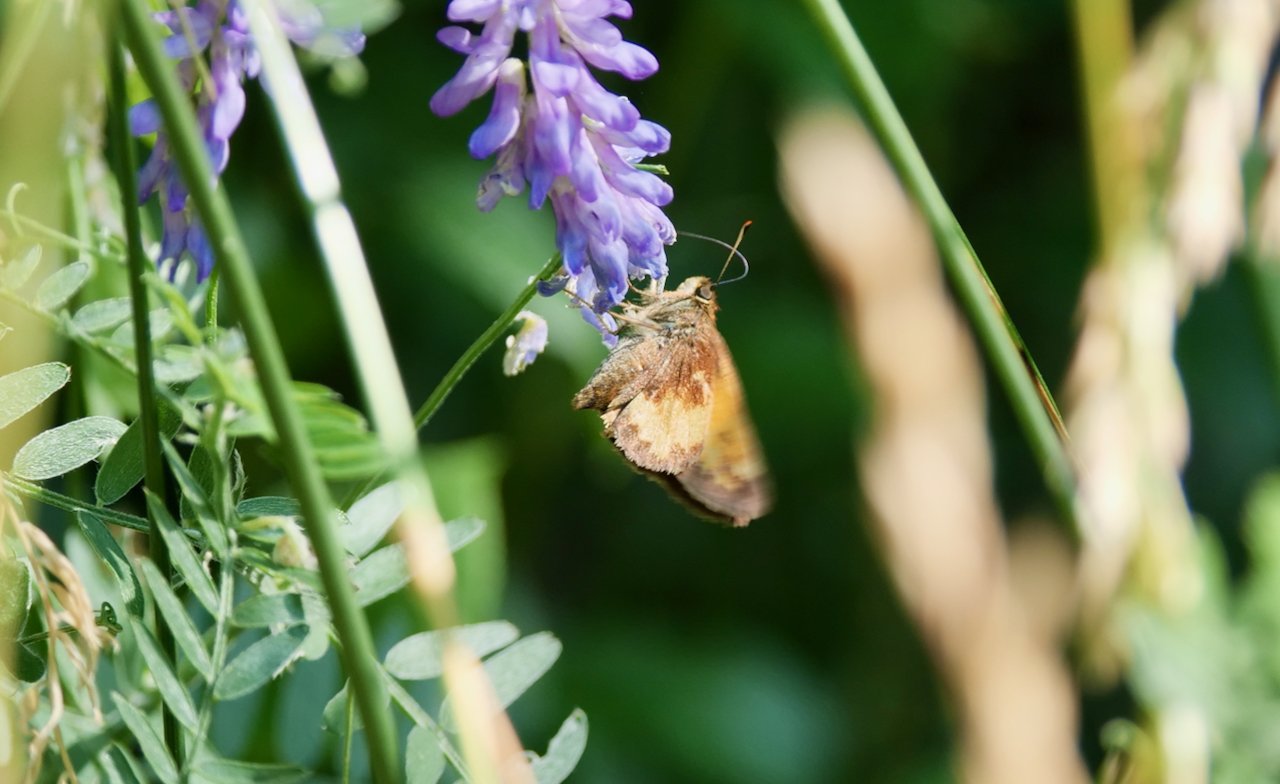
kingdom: Animalia
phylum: Arthropoda
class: Insecta
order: Lepidoptera
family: Hesperiidae
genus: Lon
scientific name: Lon hobomok
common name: Hobomok Skipper
